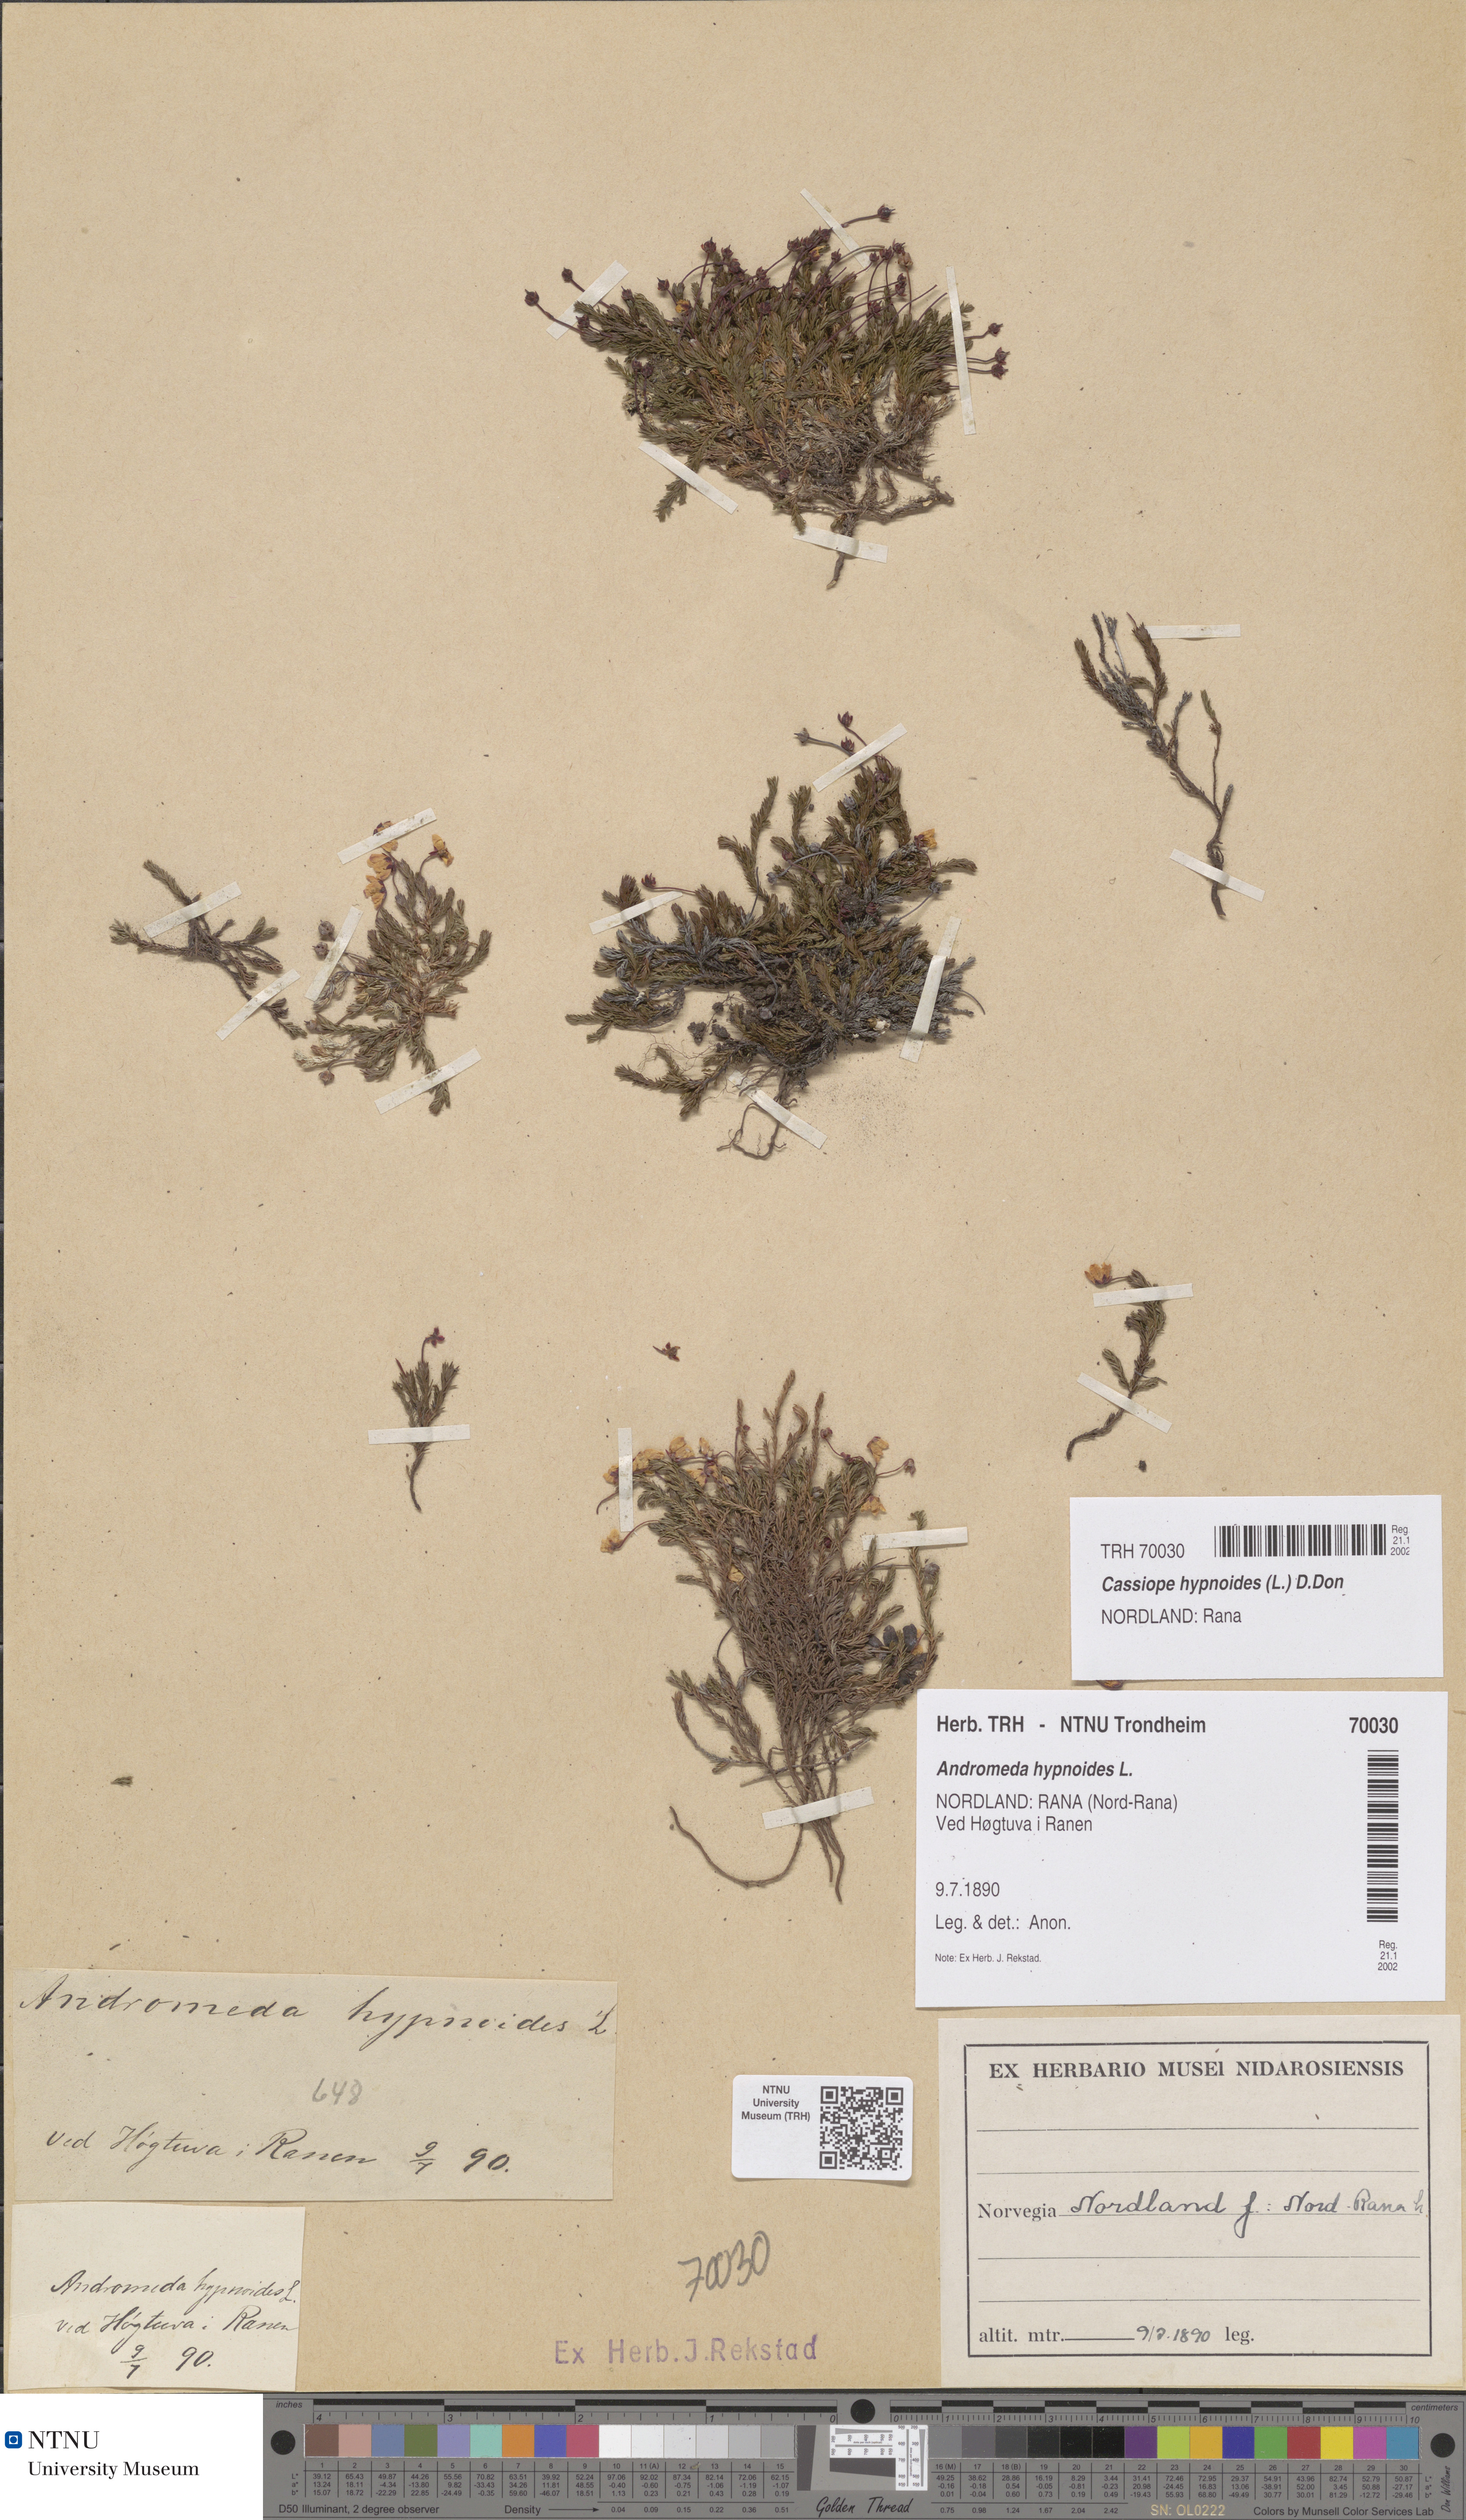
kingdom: Plantae
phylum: Tracheophyta
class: Magnoliopsida
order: Ericales
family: Ericaceae
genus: Harrimanella
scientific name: Harrimanella hypnoides
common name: Moss bell heather
